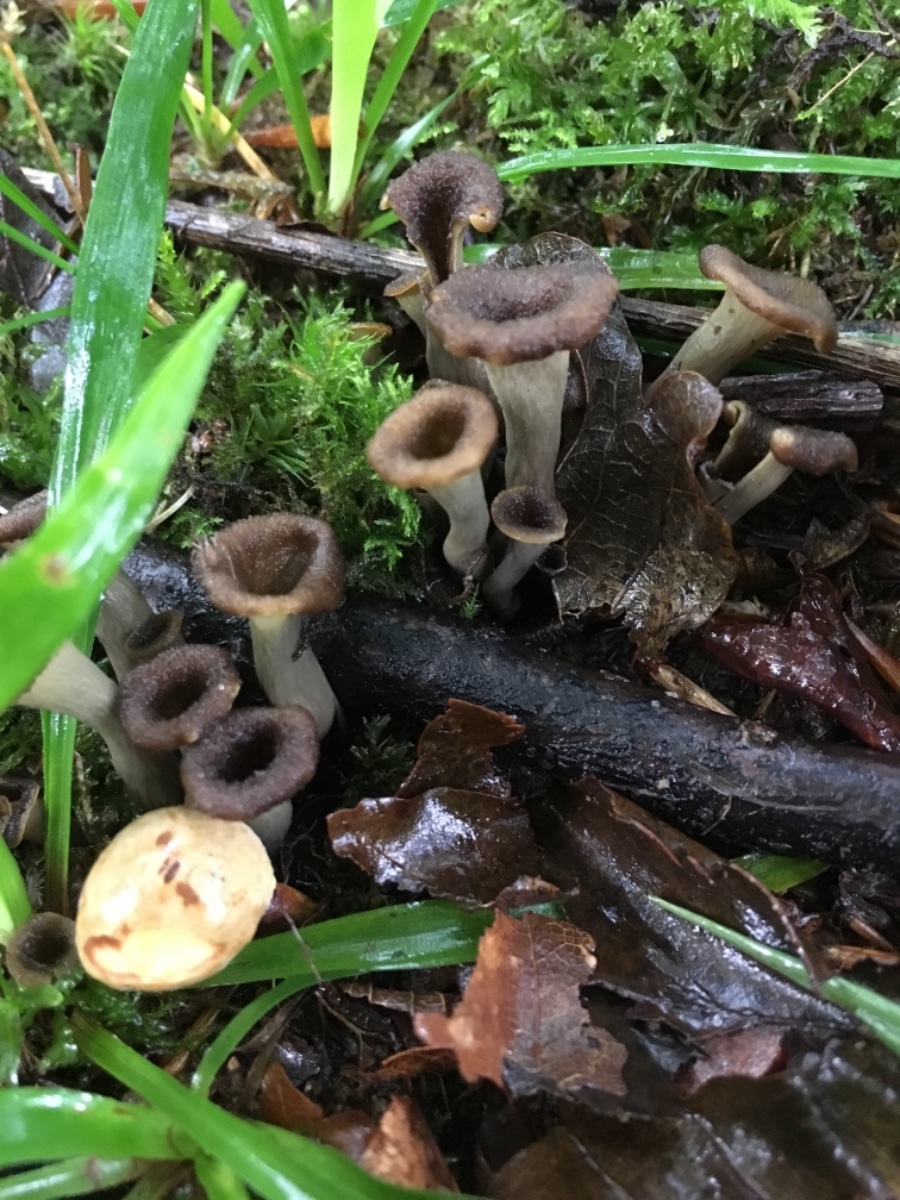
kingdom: Fungi
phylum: Basidiomycota
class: Agaricomycetes
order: Cantharellales
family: Hydnaceae
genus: Craterellus
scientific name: Craterellus cornucopioides
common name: trompetsvamp
